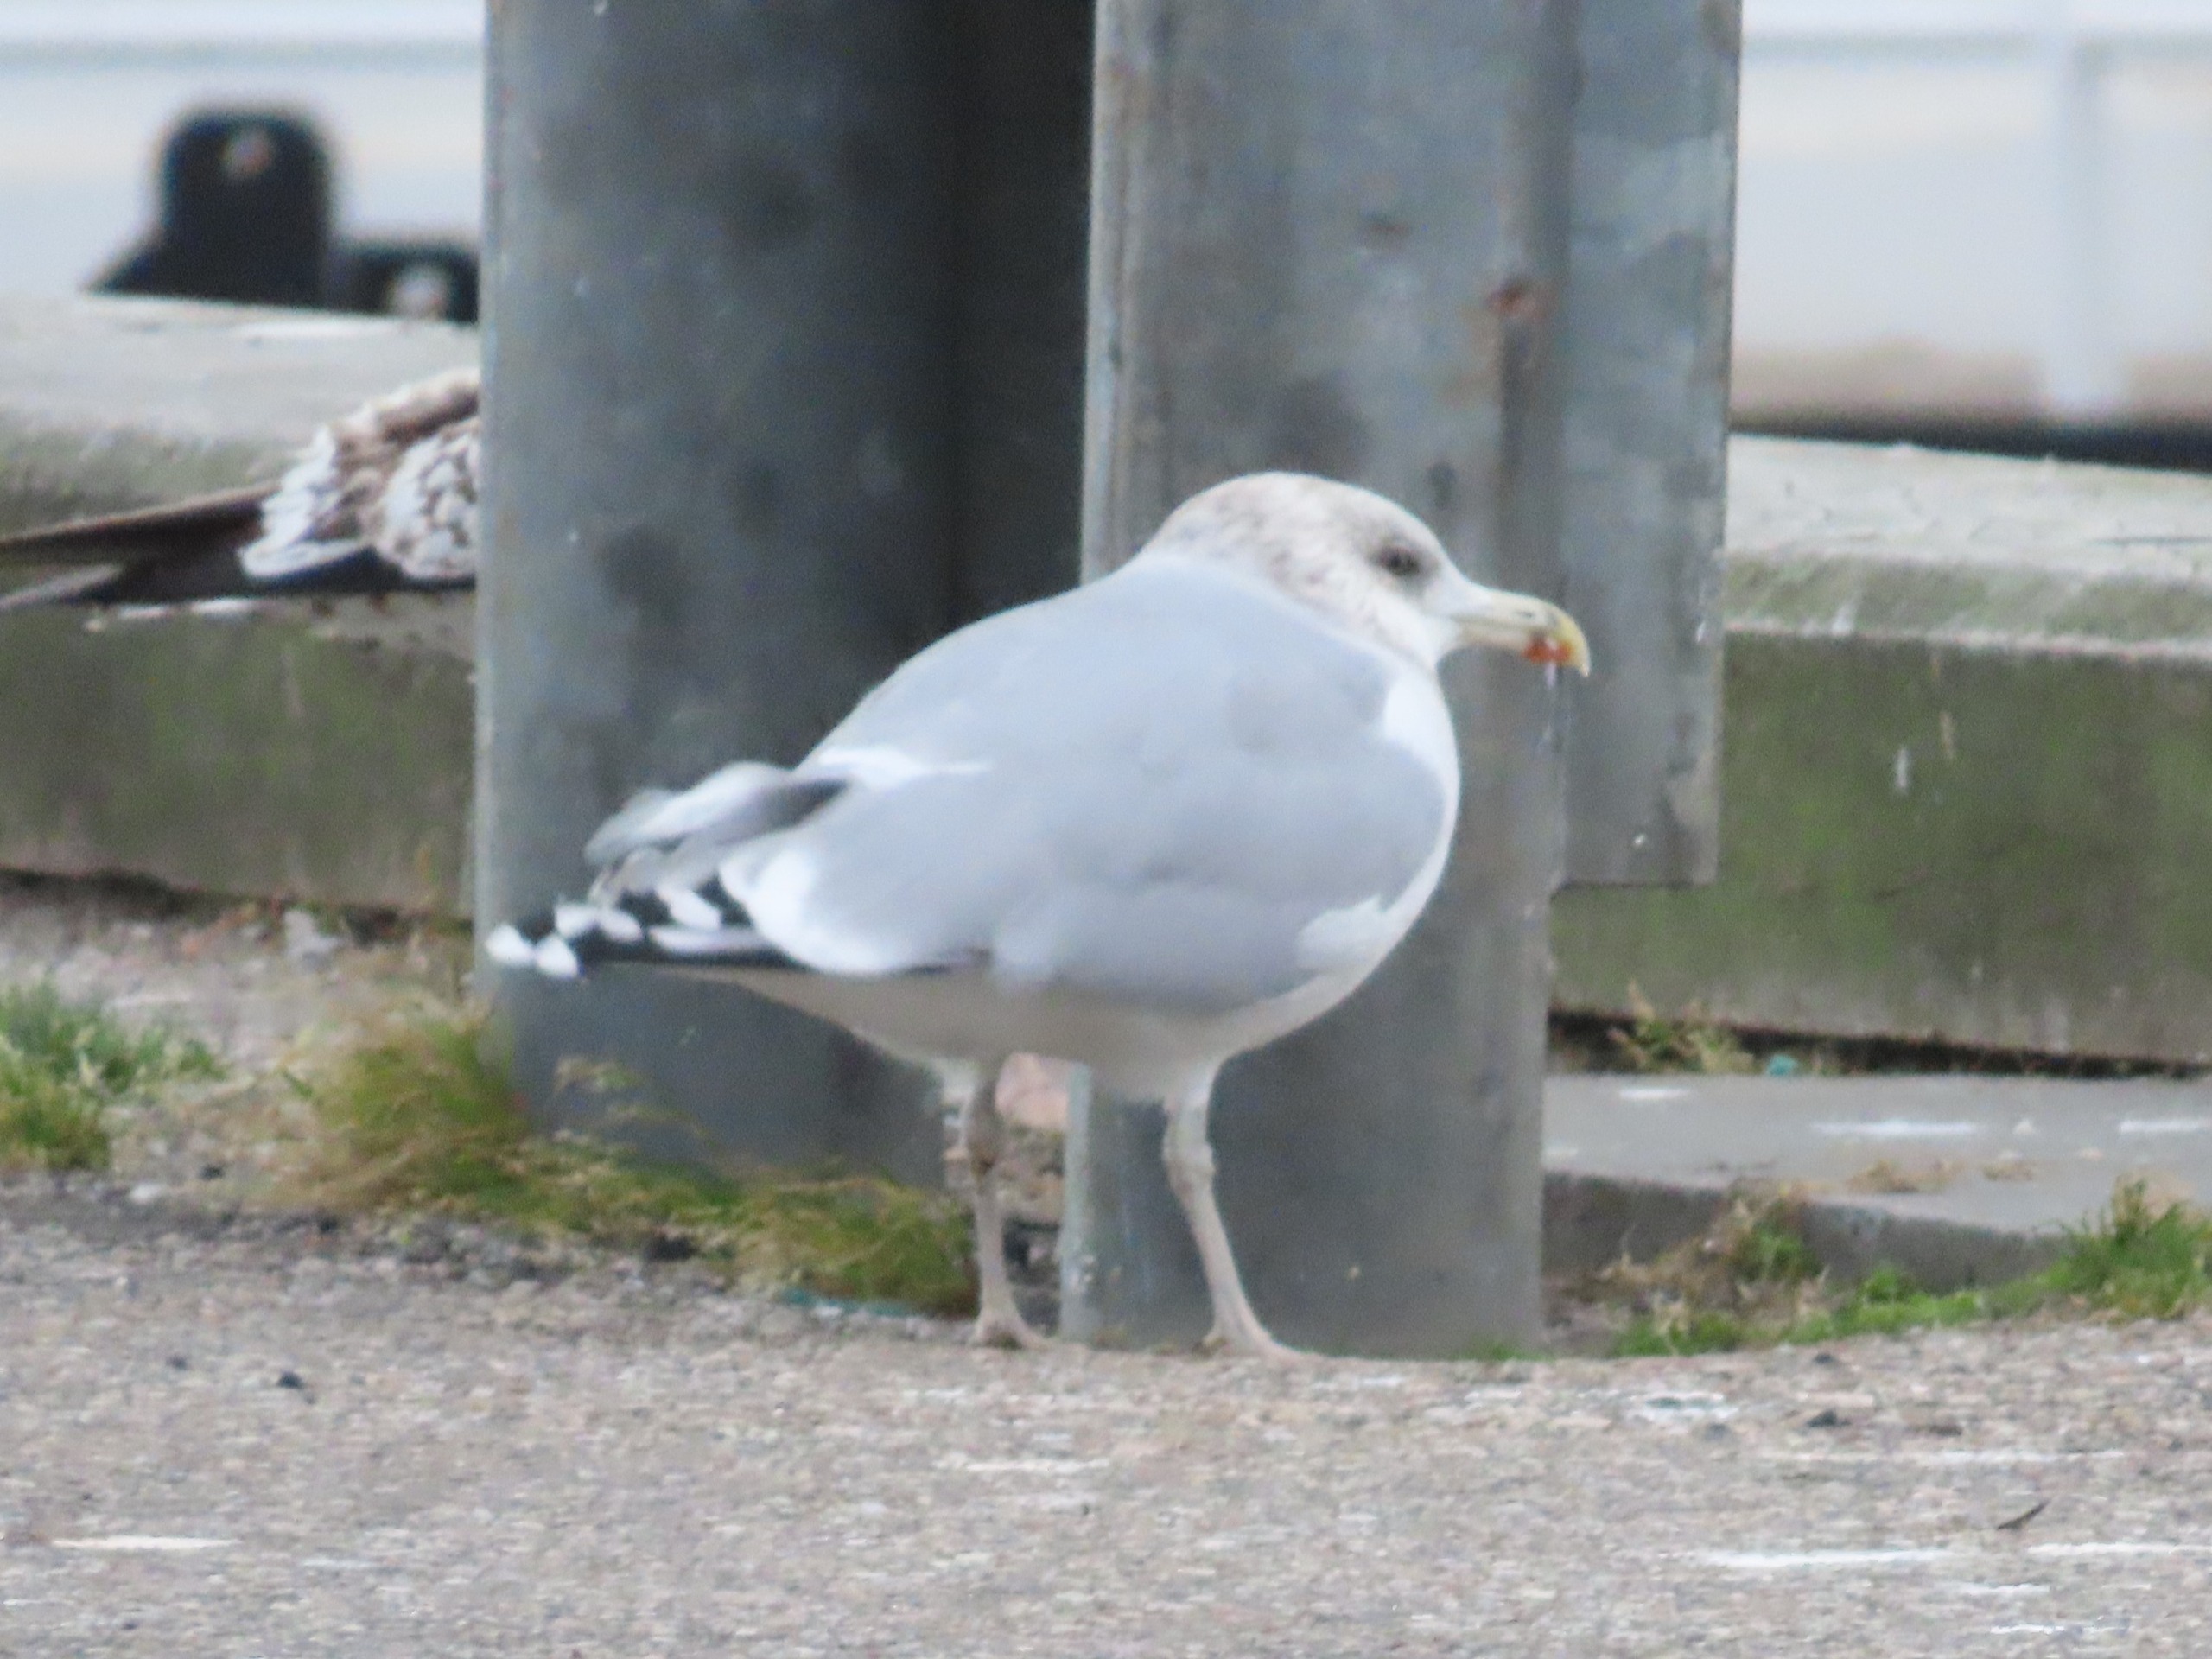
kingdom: Animalia
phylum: Chordata
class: Aves
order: Charadriiformes
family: Laridae
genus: Larus
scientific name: Larus argentatus
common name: Sølvmåge
